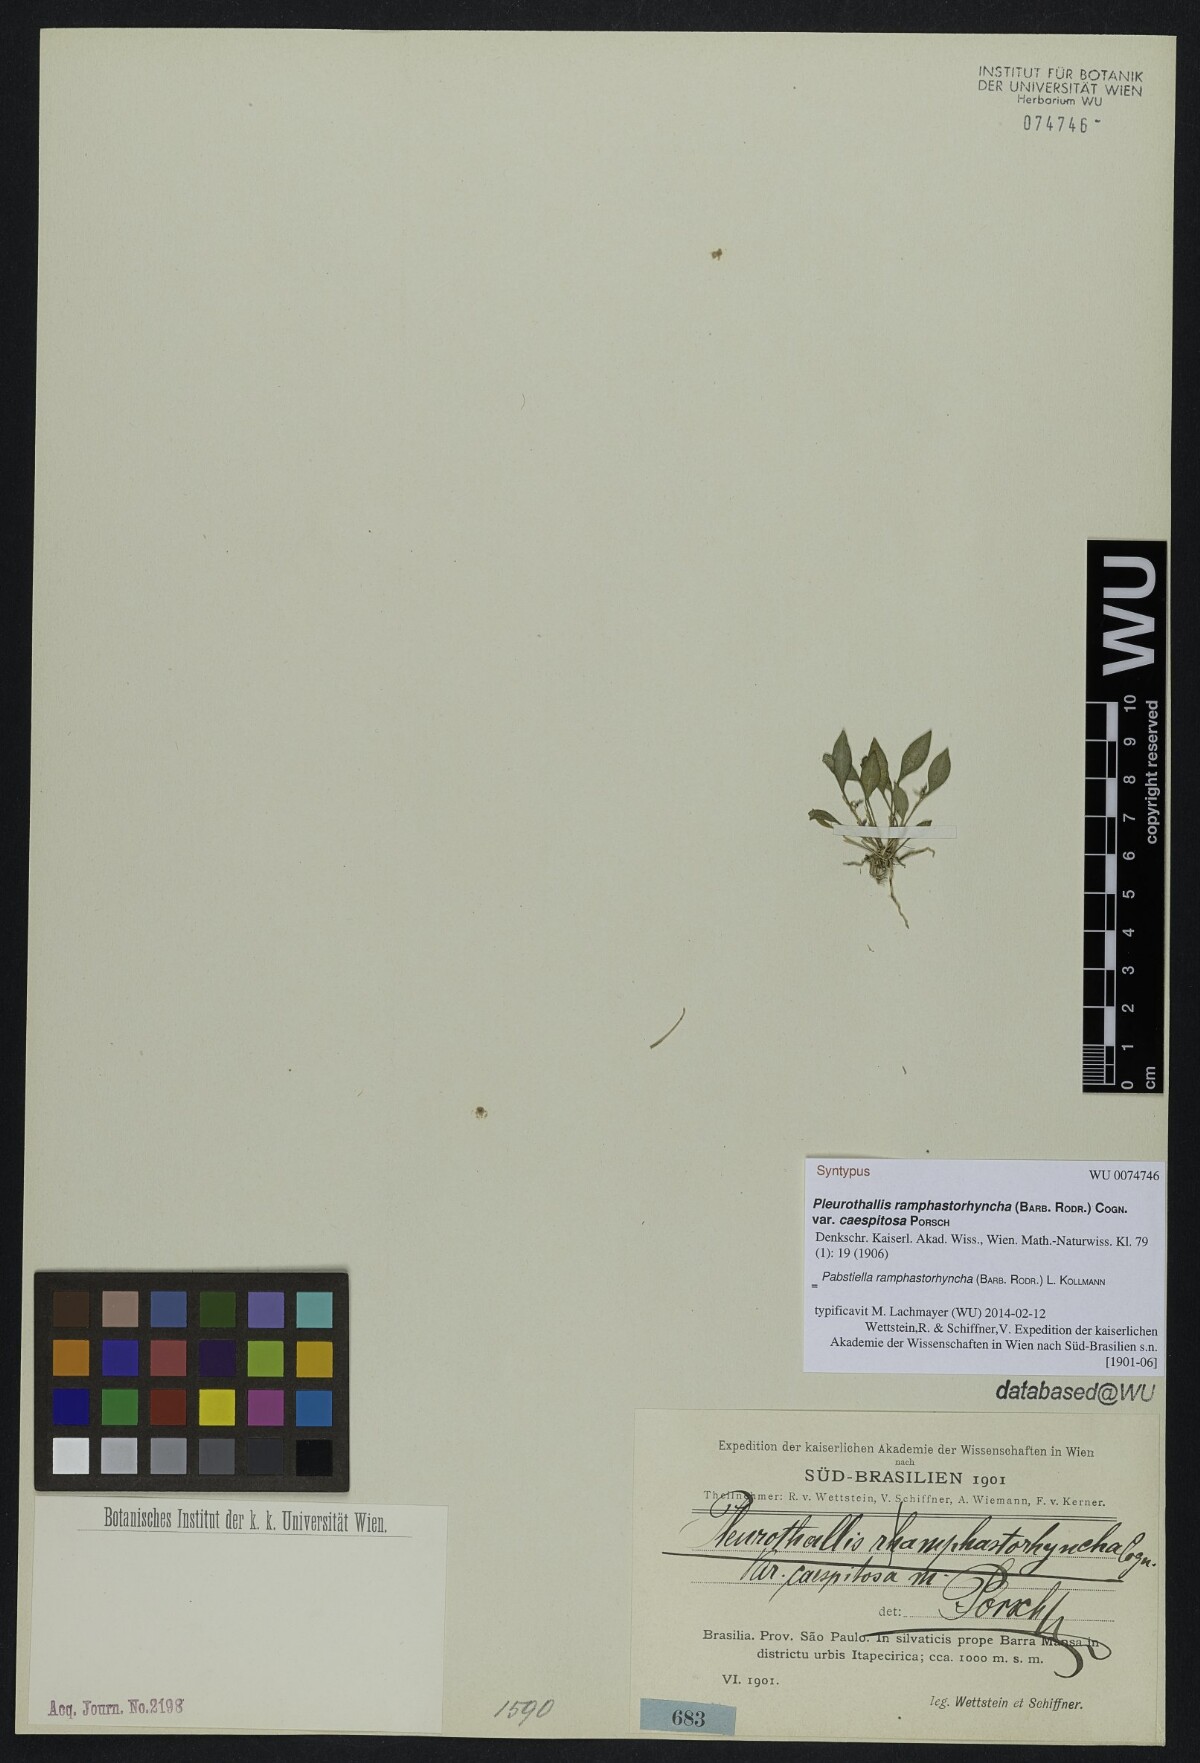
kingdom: Plantae
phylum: Tracheophyta
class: Liliopsida
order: Asparagales
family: Orchidaceae
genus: Pabstiella
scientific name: Pabstiella ramphastorhyncha
